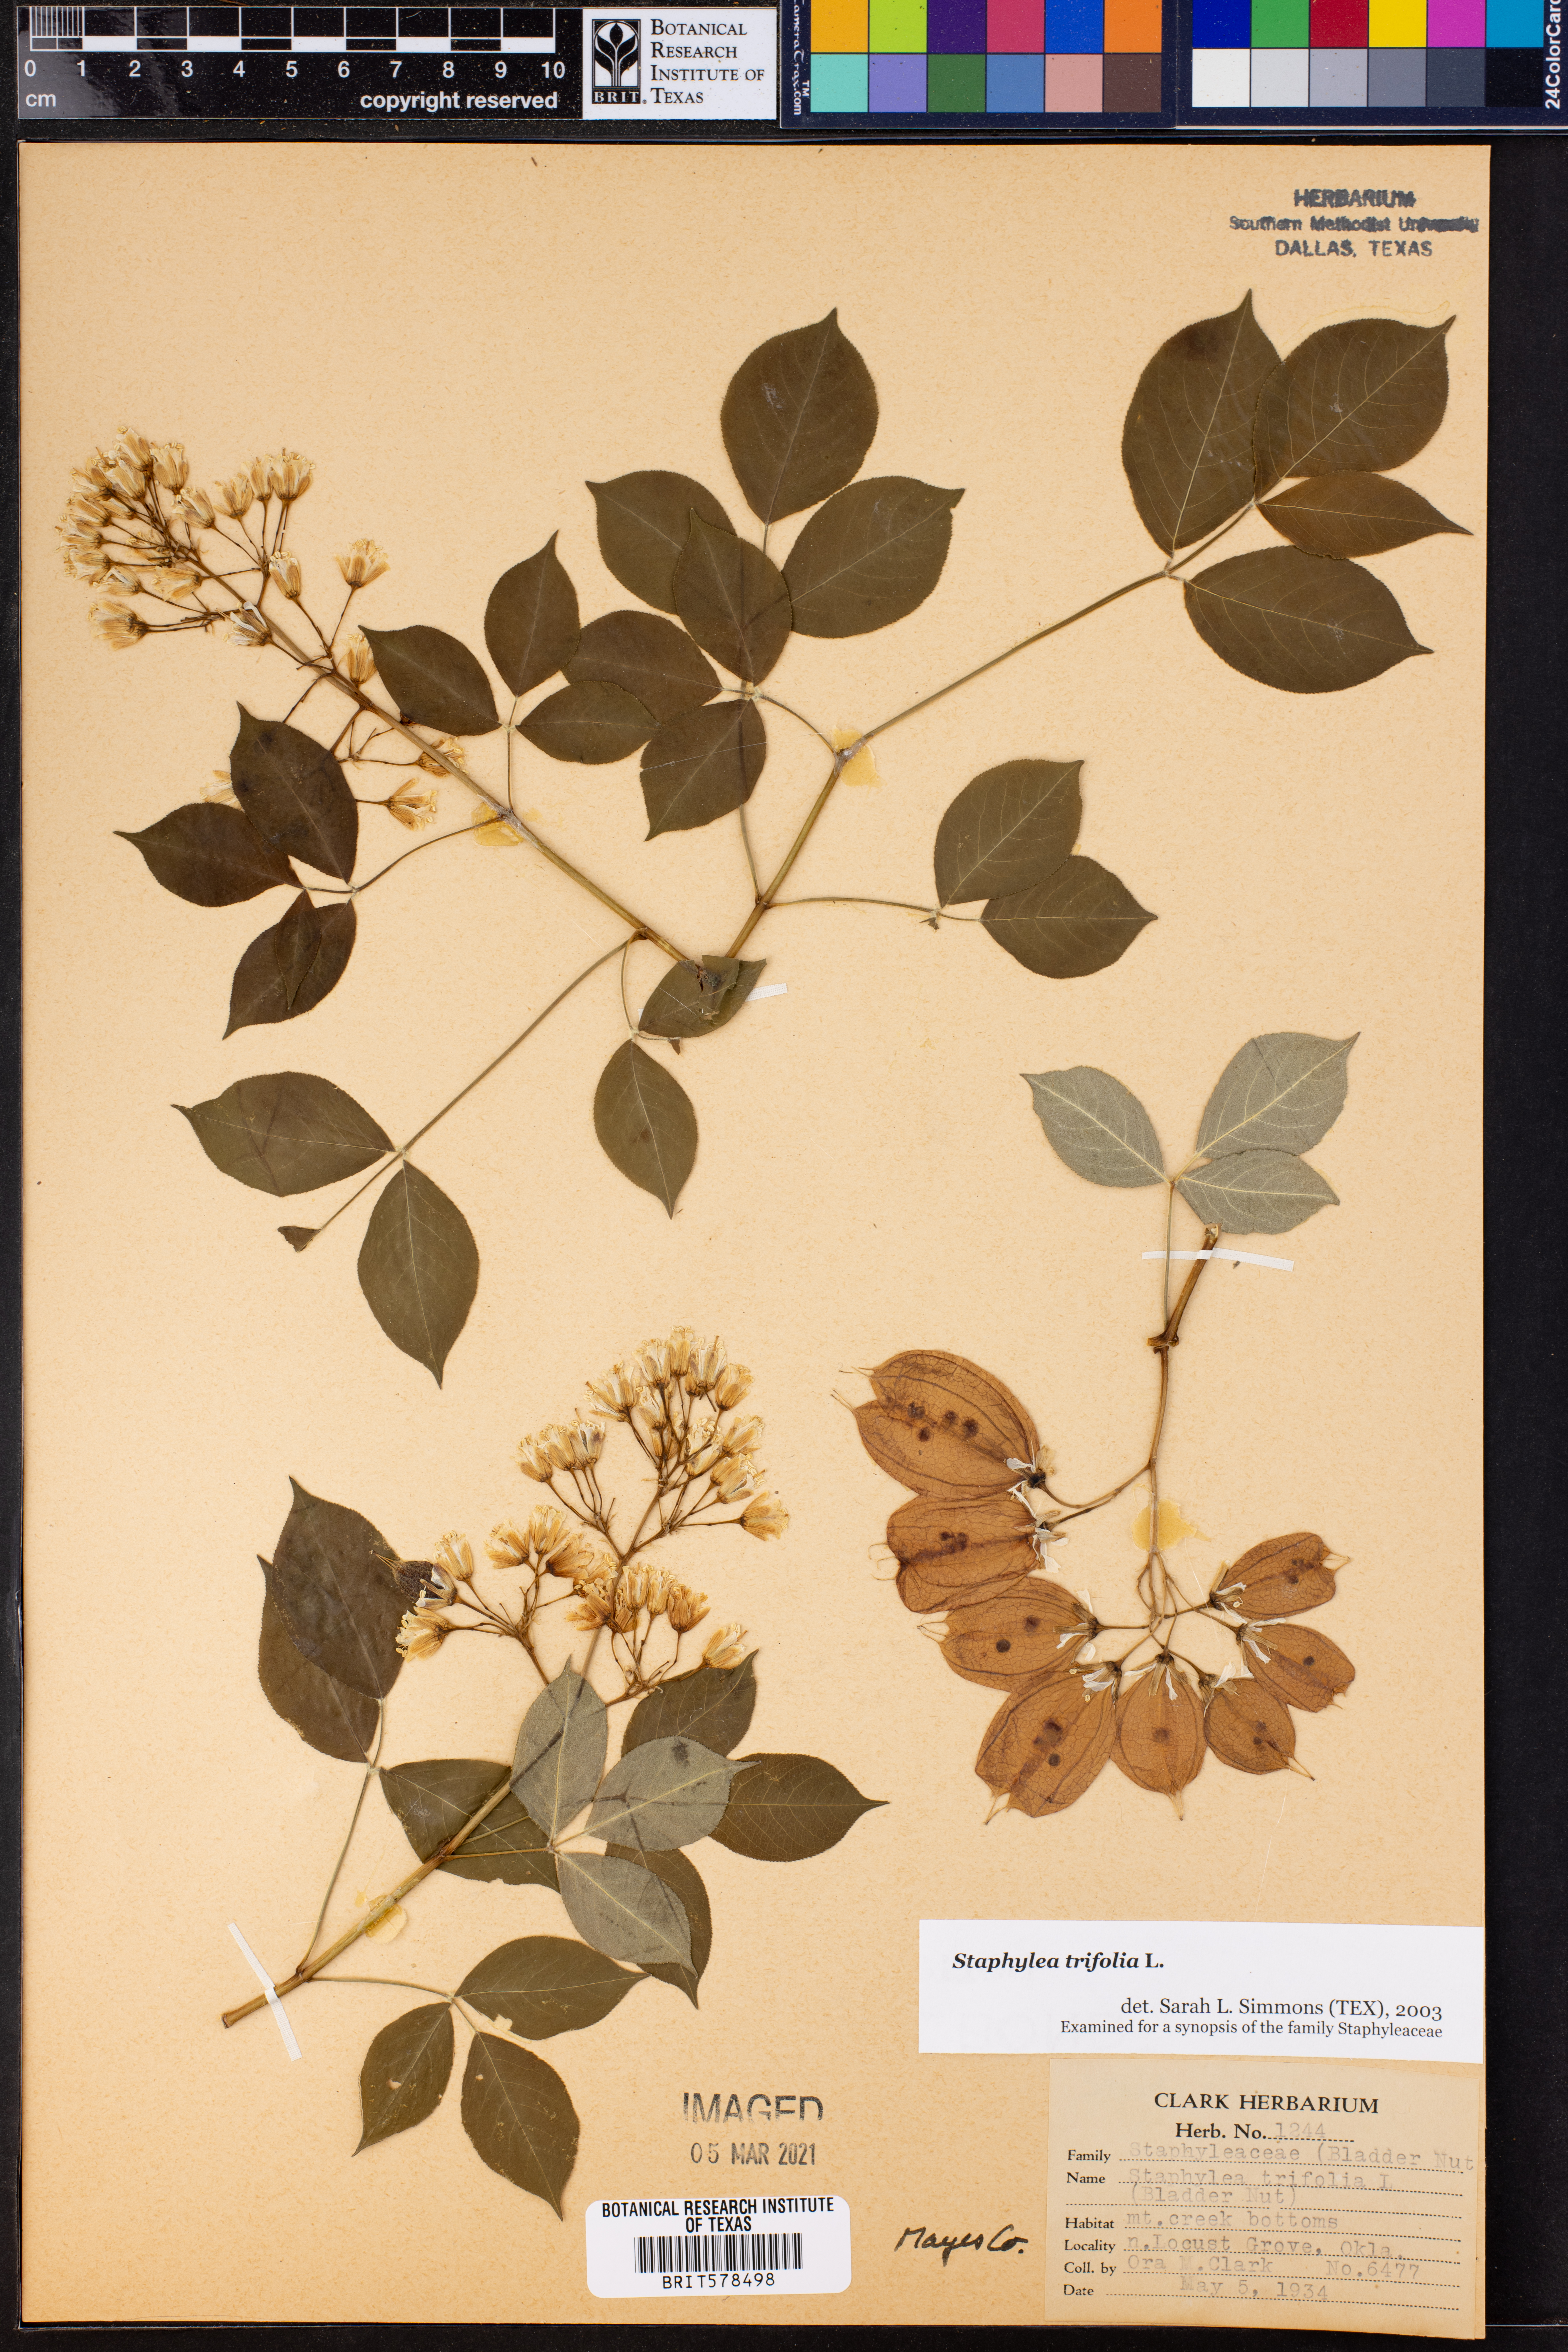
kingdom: Plantae
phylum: Tracheophyta
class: Magnoliopsida
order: Crossosomatales
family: Staphyleaceae
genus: Staphylea
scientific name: Staphylea trifolia
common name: American bladdernut
